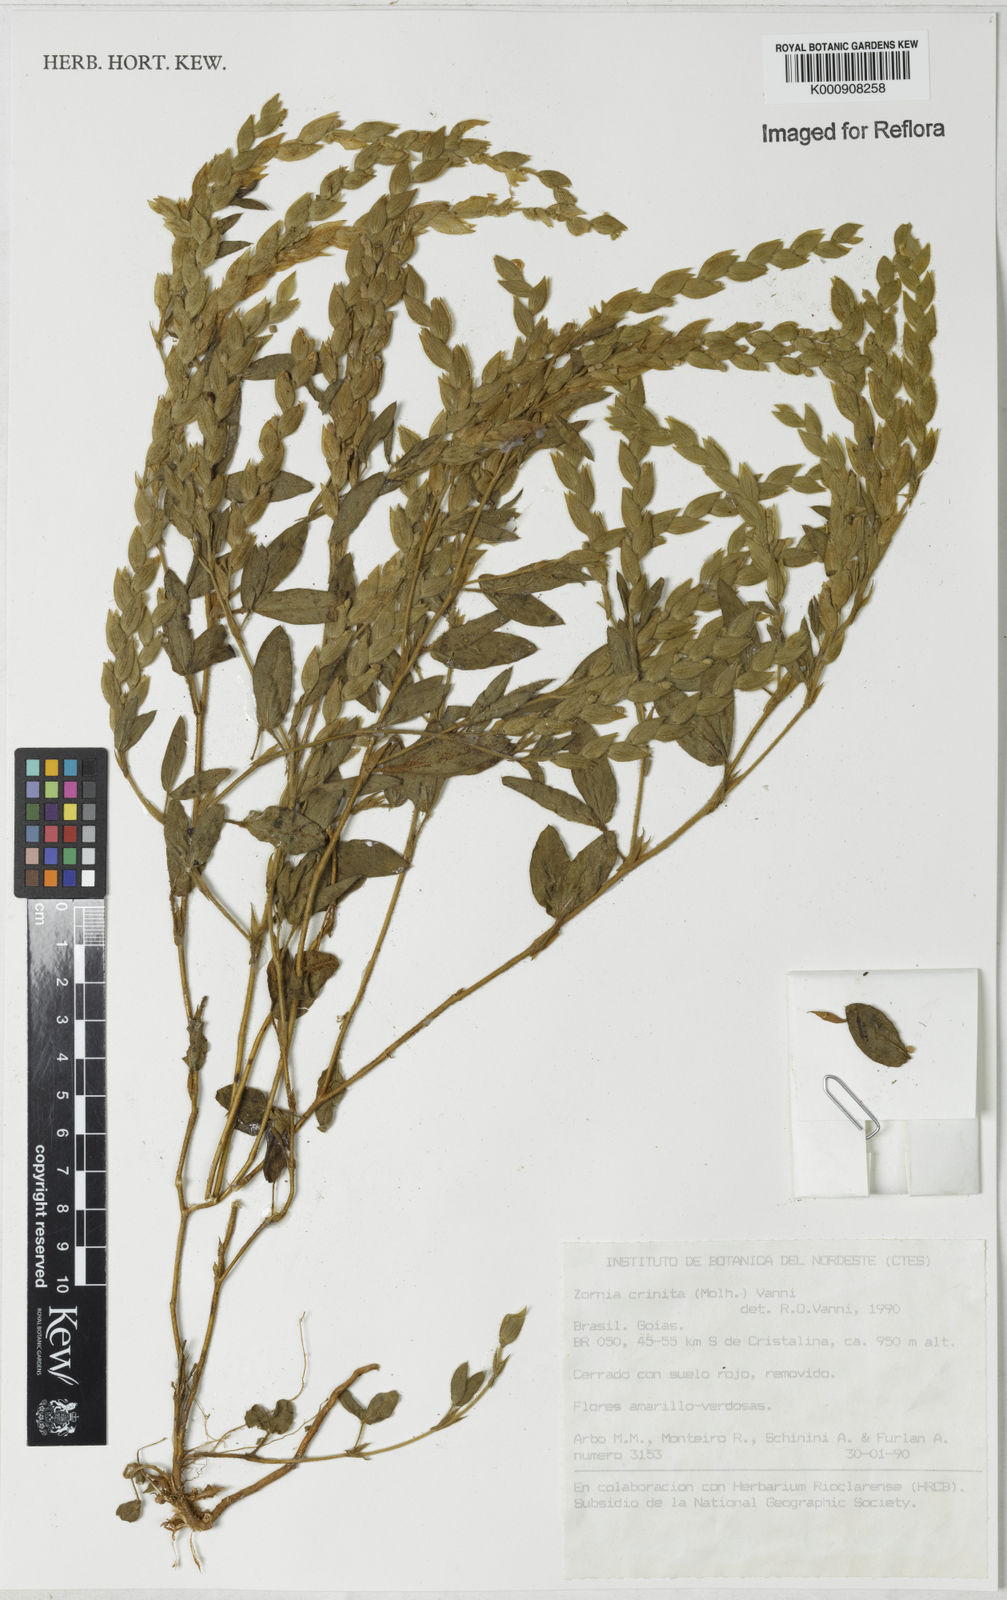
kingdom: Plantae
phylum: Tracheophyta
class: Magnoliopsida
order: Fabales
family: Fabaceae
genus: Zornia
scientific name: Zornia pardina
